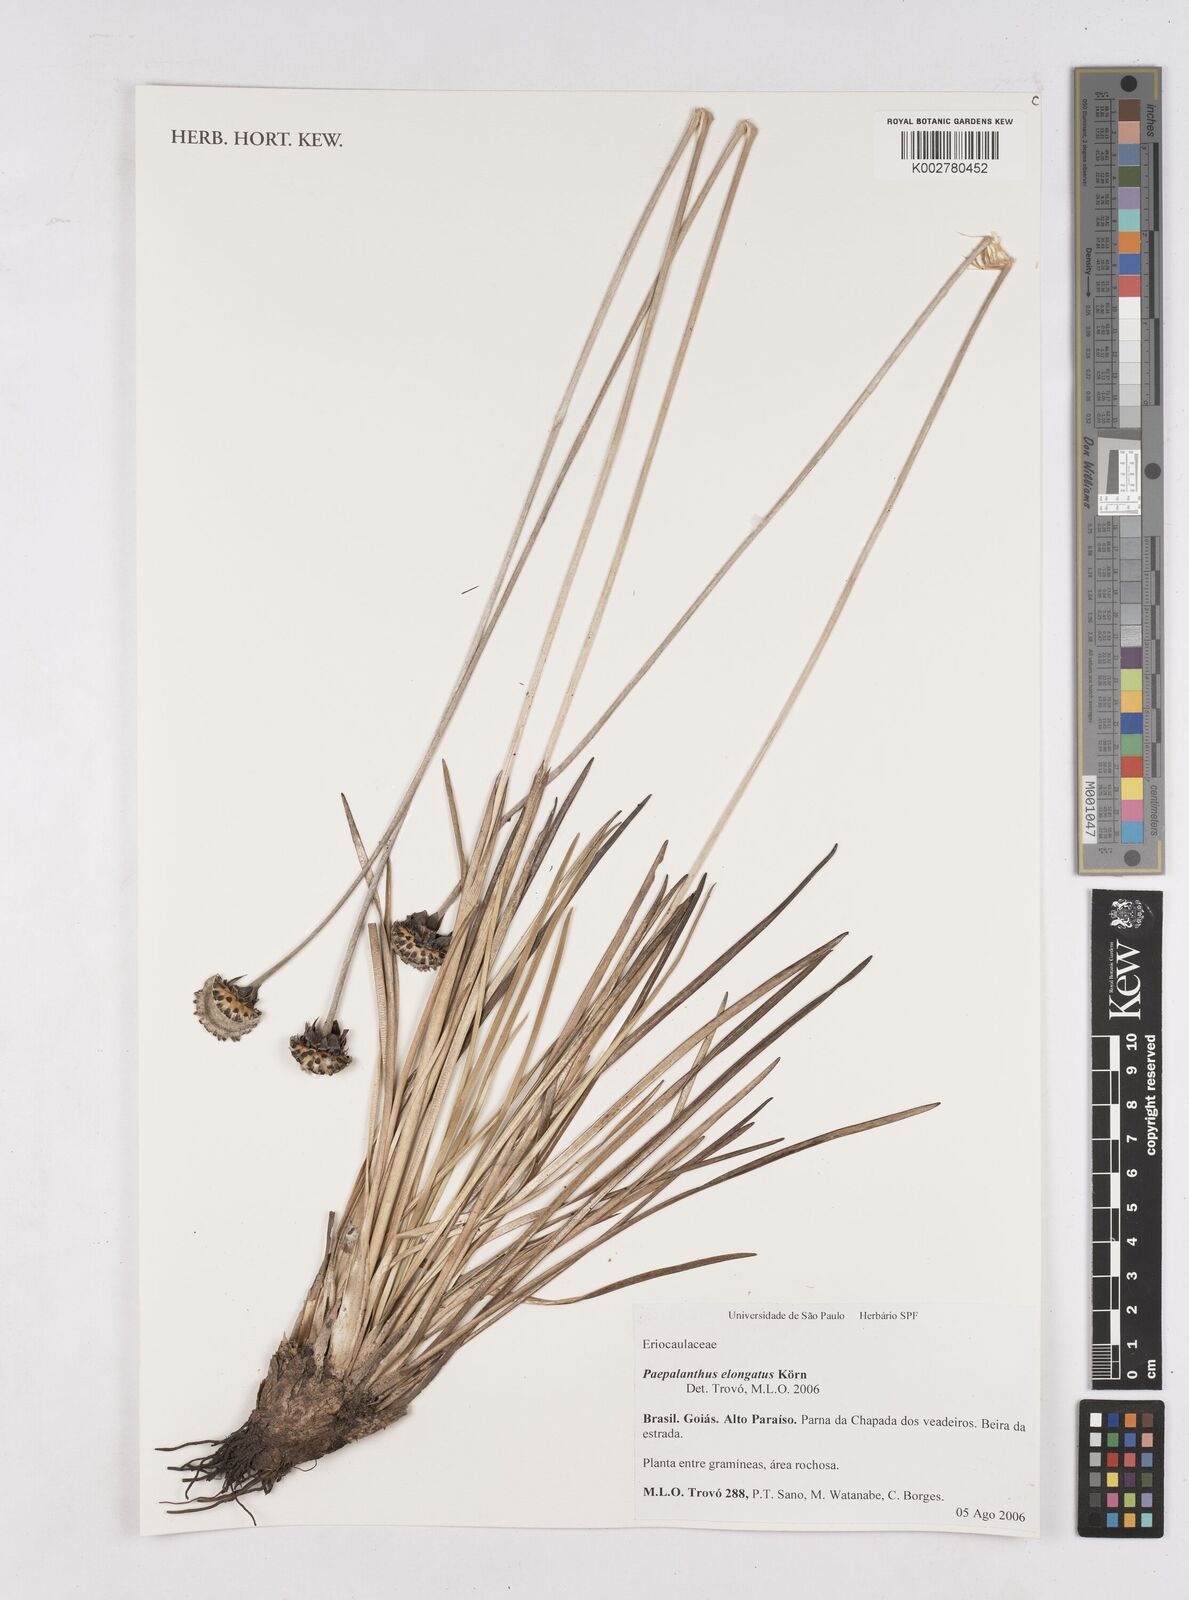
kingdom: Plantae
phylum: Tracheophyta
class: Liliopsida
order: Poales
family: Eriocaulaceae
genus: Paepalanthus
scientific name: Paepalanthus elongatus
